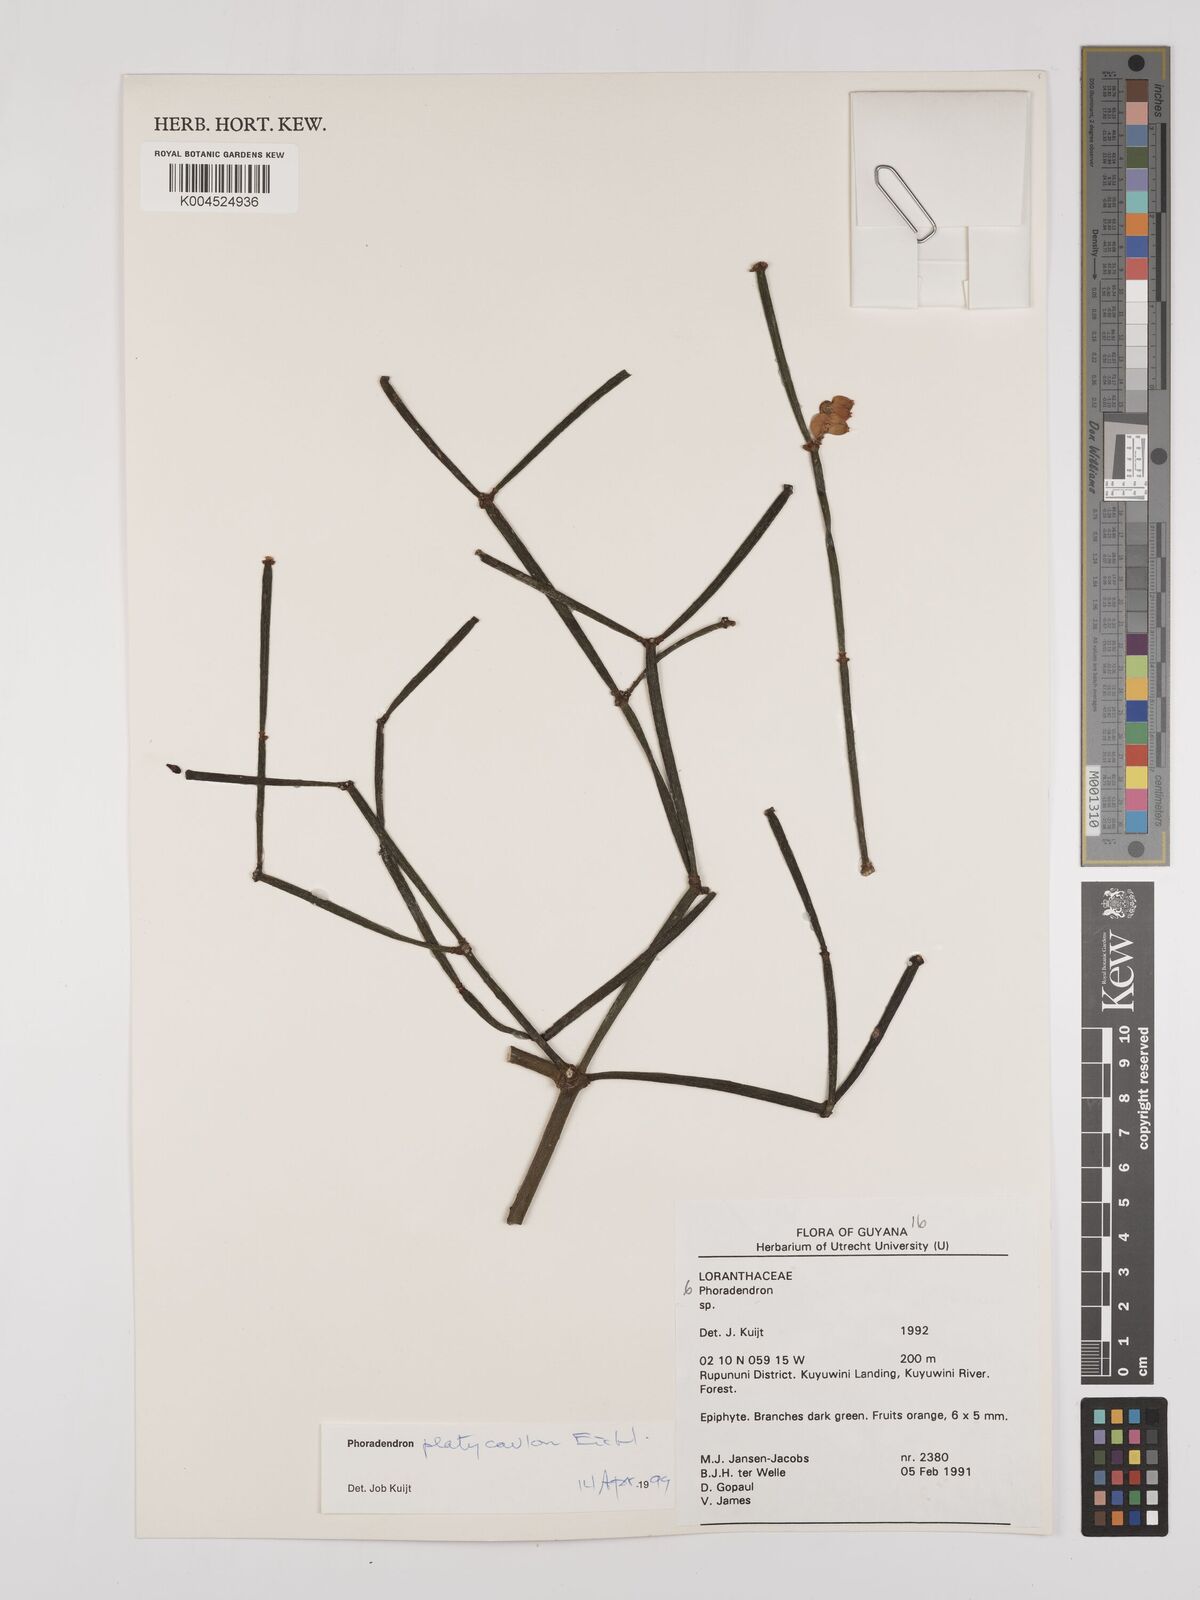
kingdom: Plantae
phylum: Tracheophyta
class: Magnoliopsida
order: Santalales
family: Viscaceae
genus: Phoradendron
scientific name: Phoradendron planiphyllum
